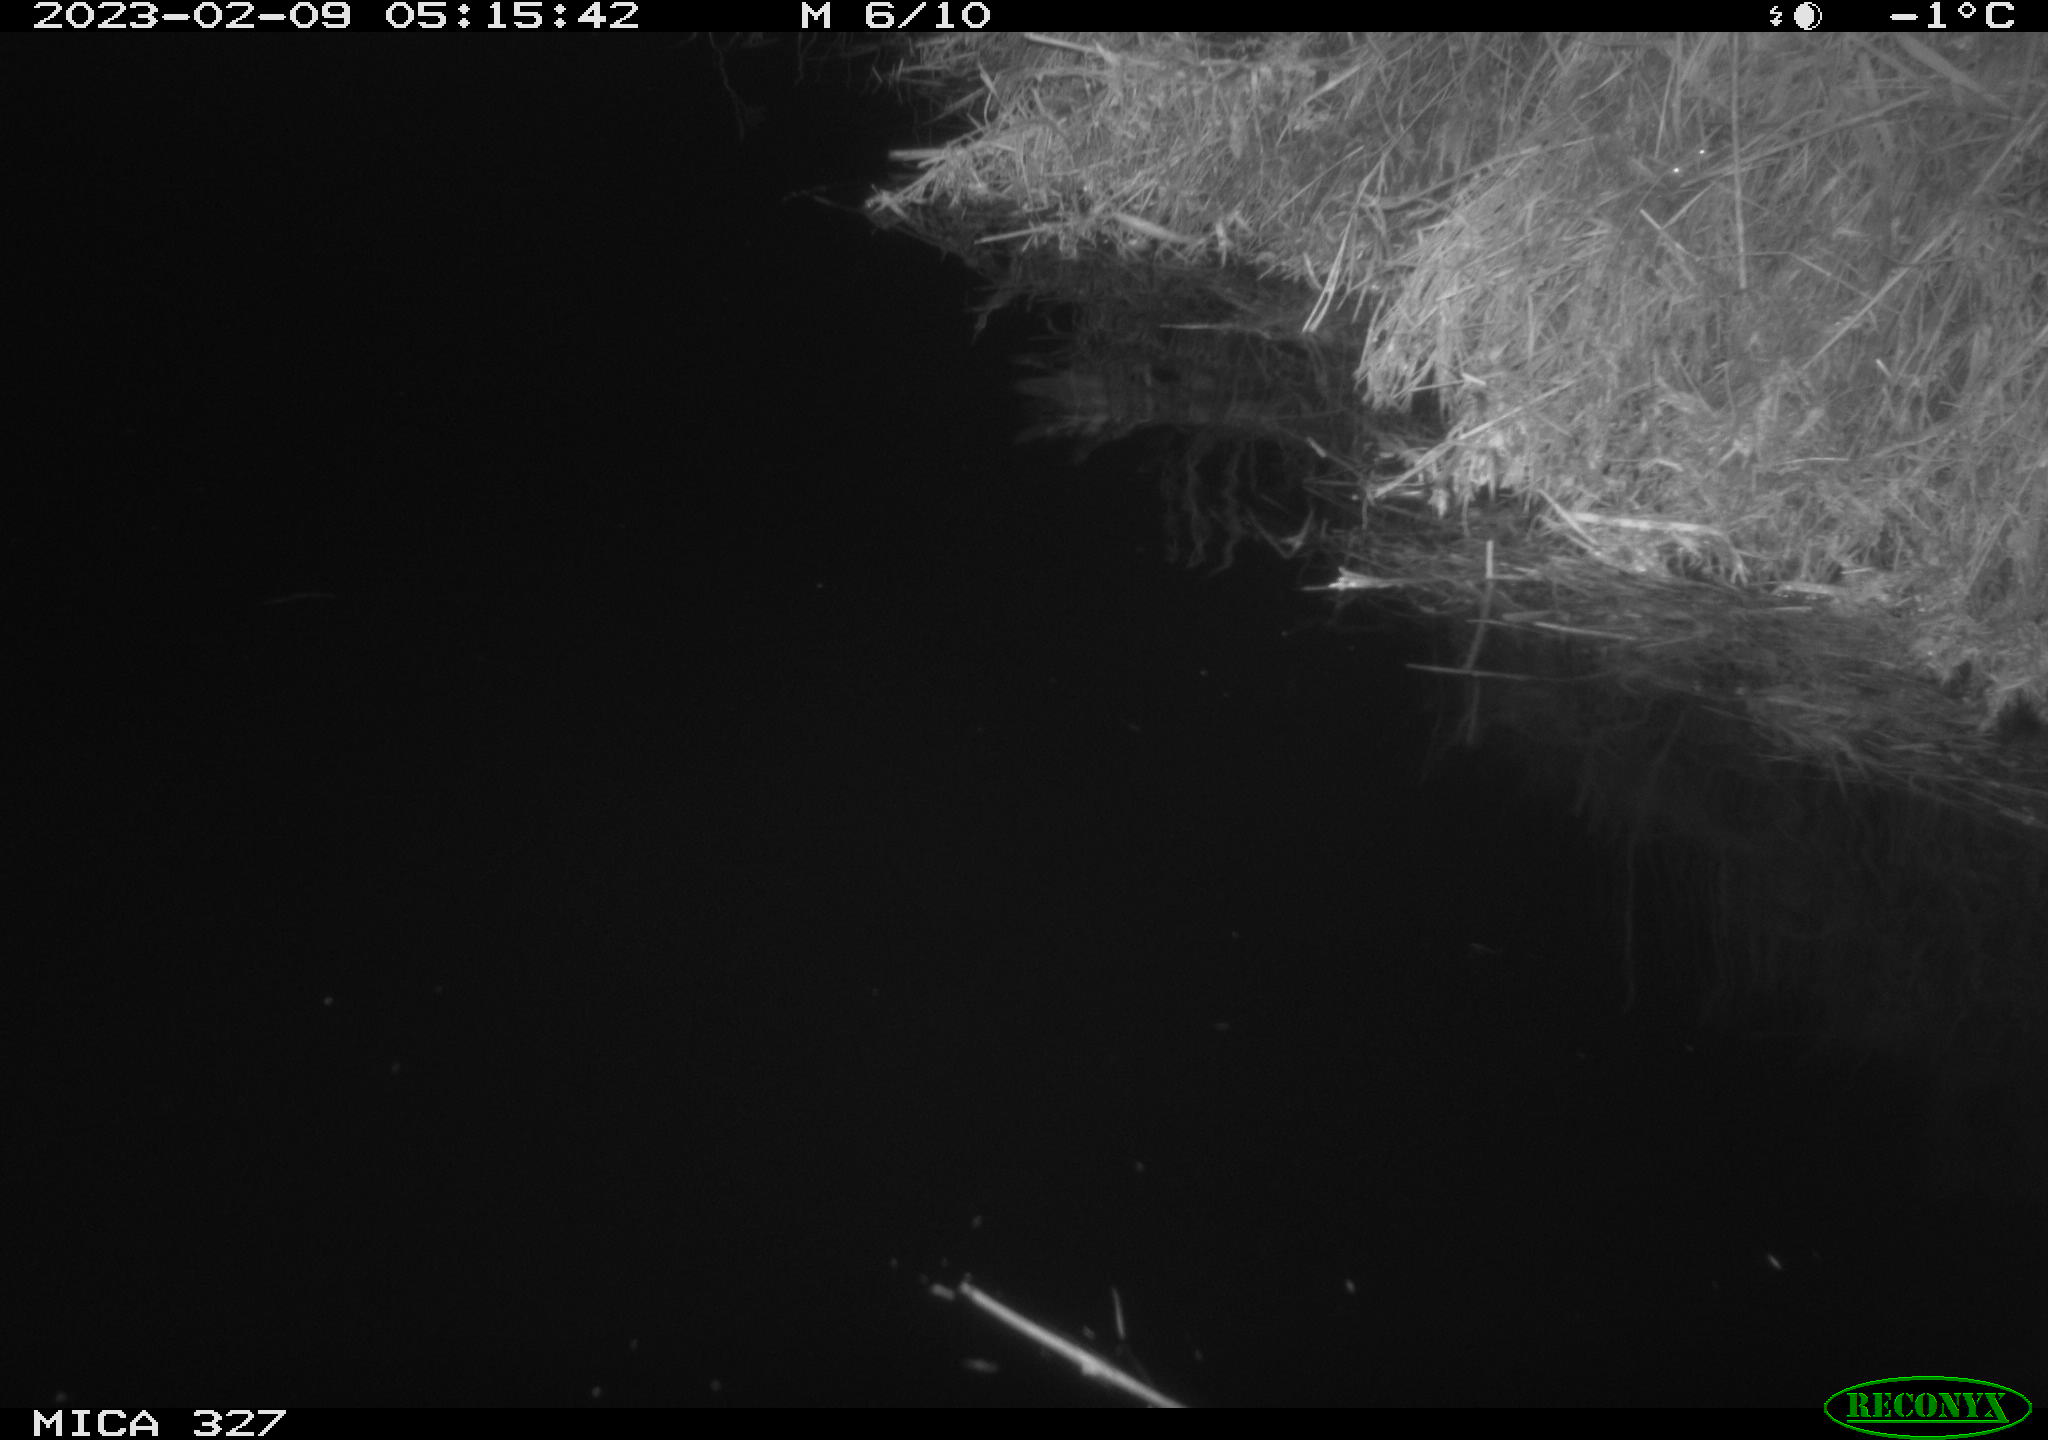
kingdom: Animalia
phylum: Chordata
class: Mammalia
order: Rodentia
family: Cricetidae
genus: Ondatra
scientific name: Ondatra zibethicus
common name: Muskrat
